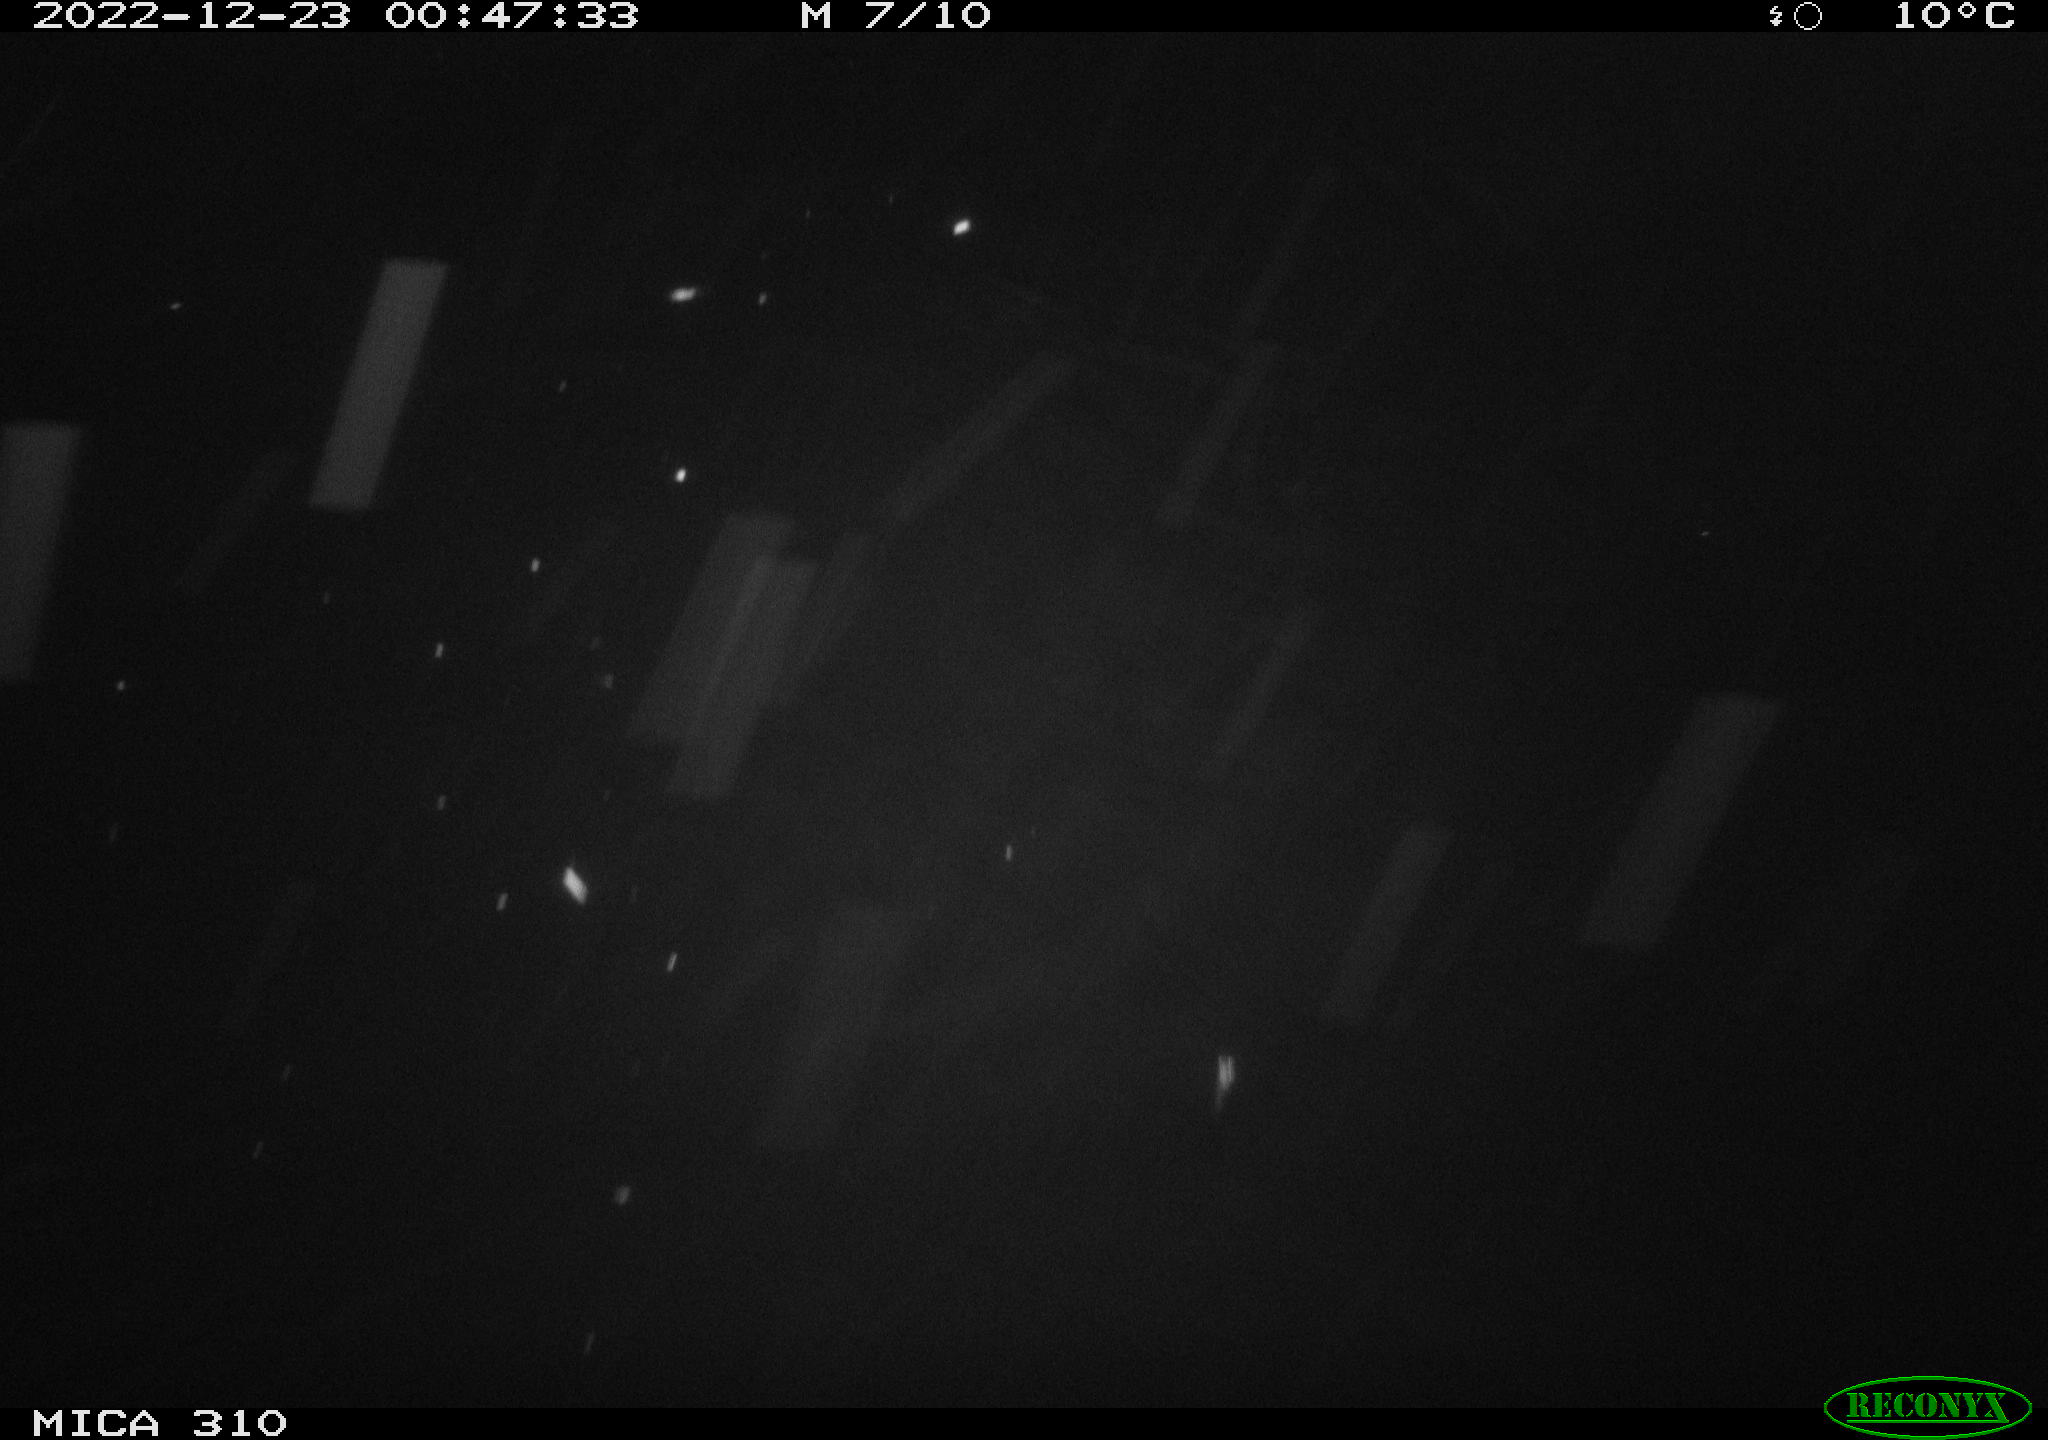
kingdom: Animalia
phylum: Chordata
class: Mammalia
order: Rodentia
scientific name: Rodentia
